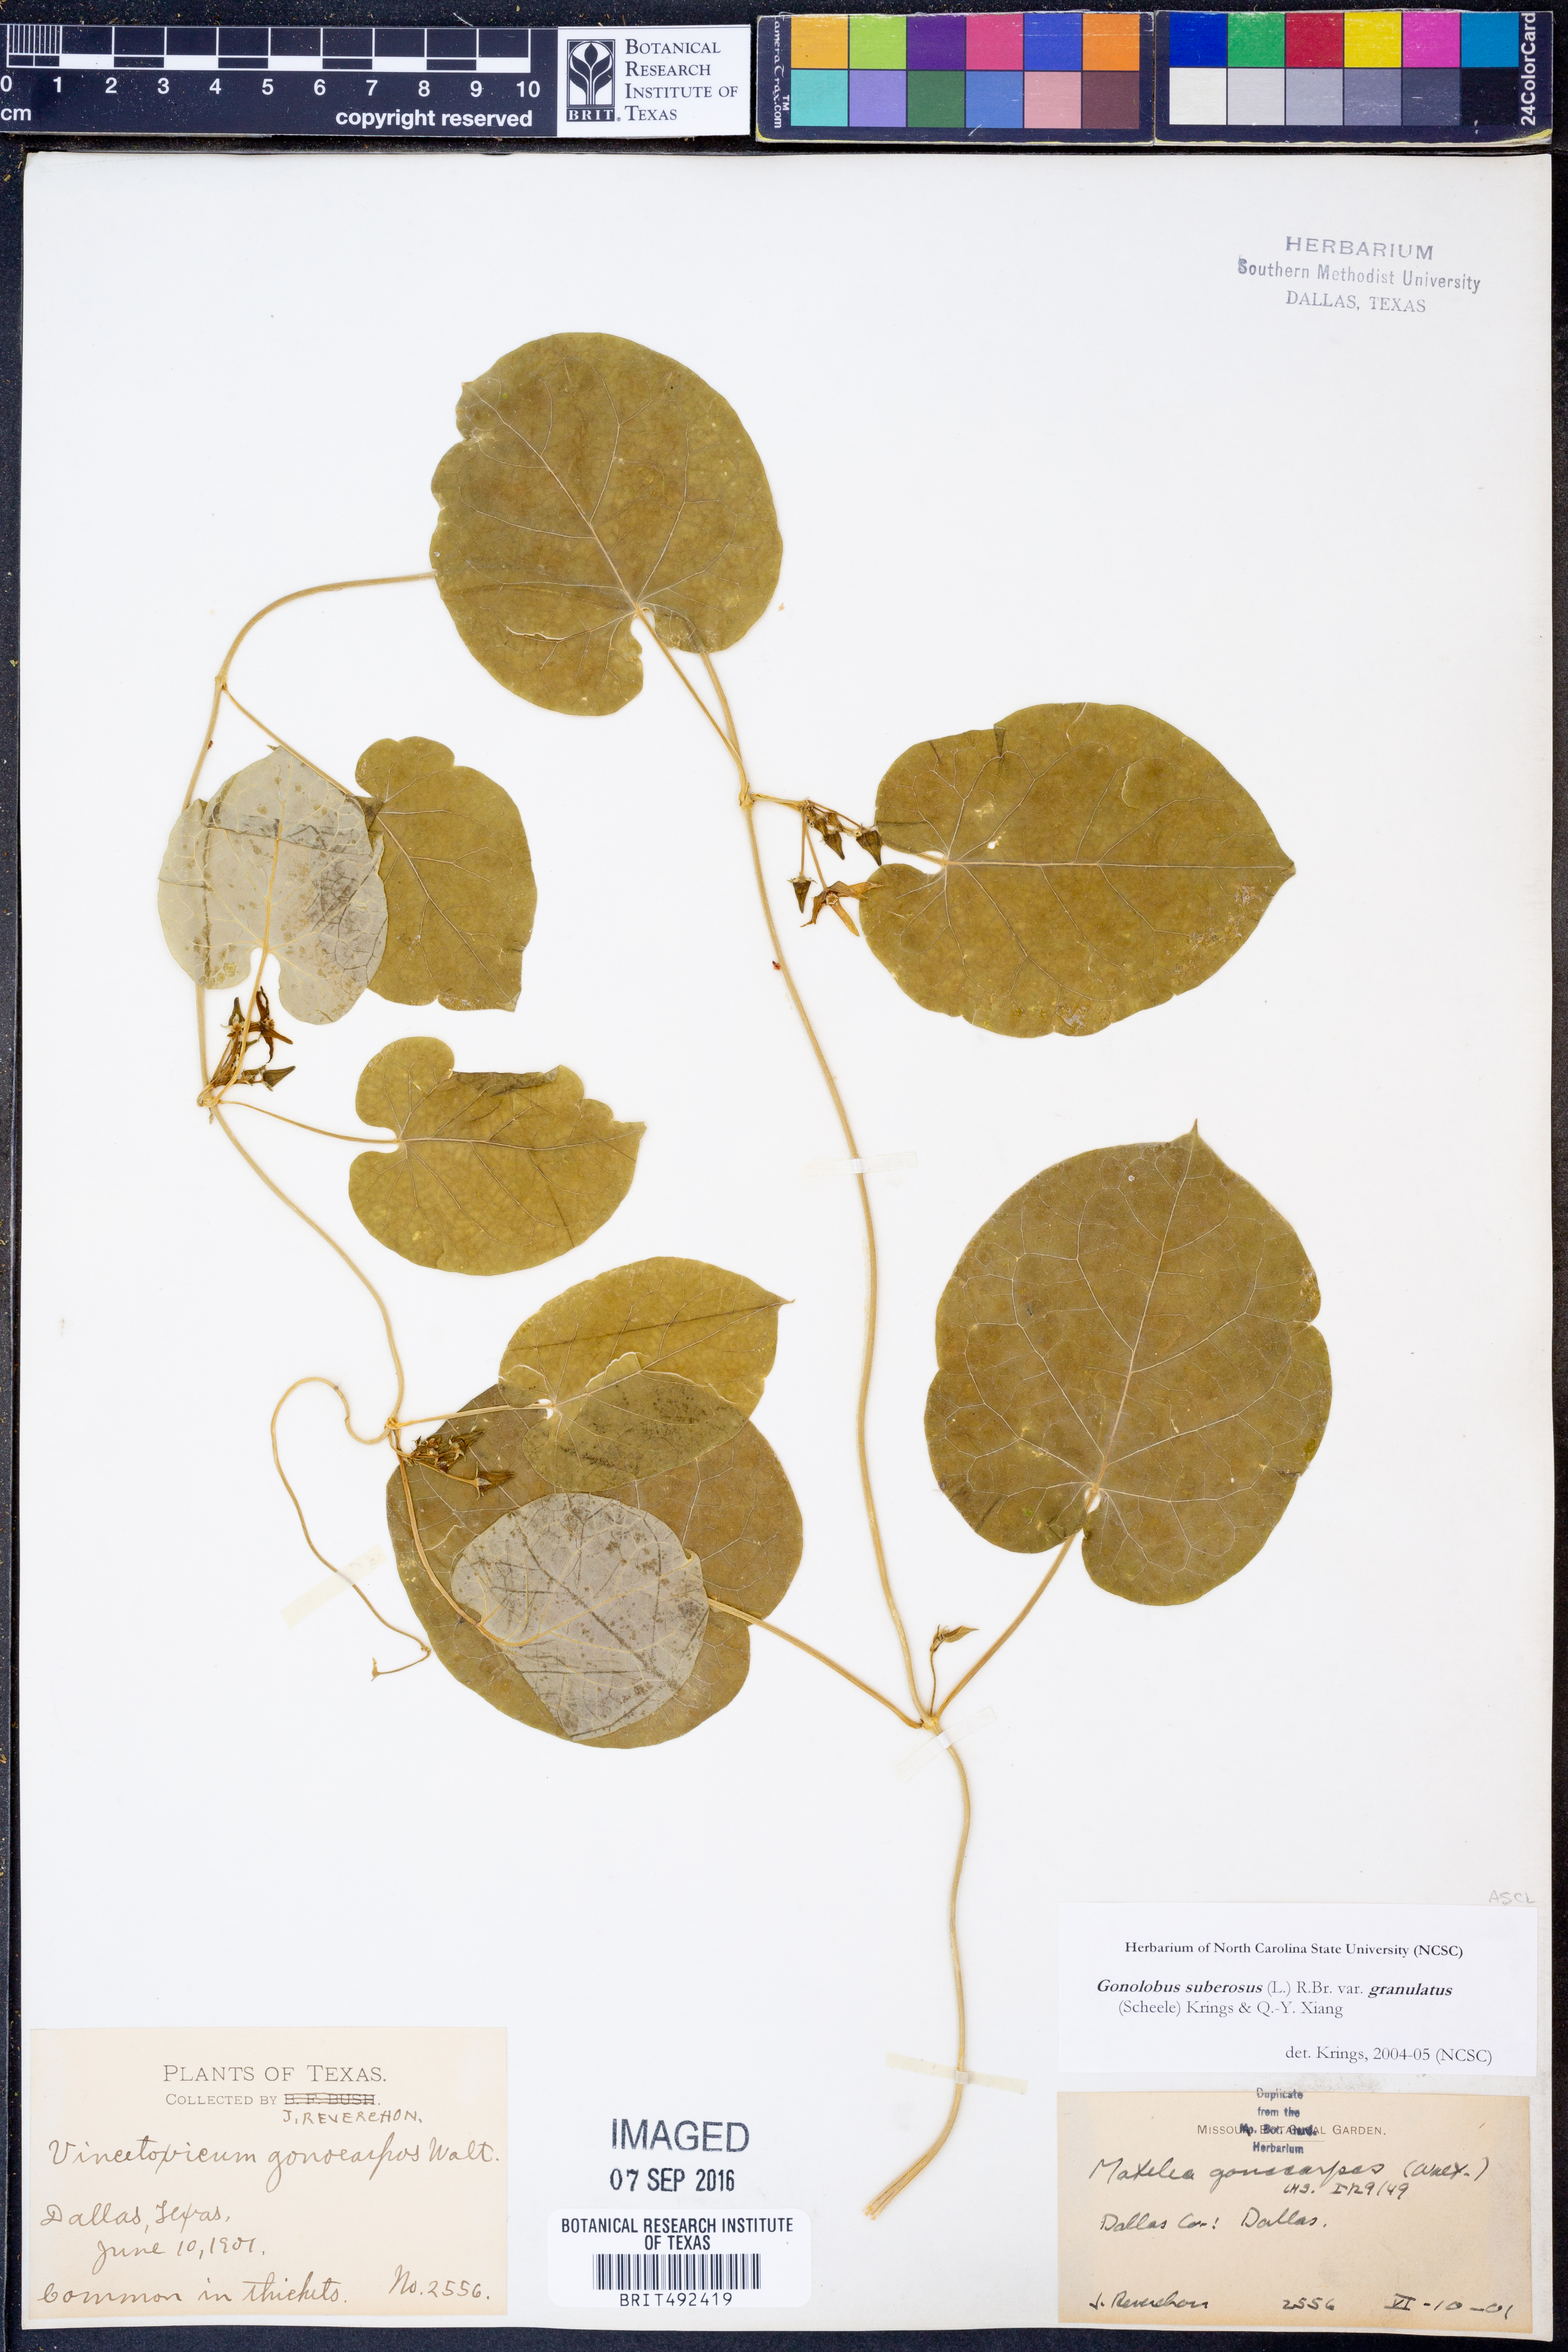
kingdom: Plantae
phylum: Tracheophyta
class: Magnoliopsida
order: Gentianales
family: Apocynaceae
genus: Gonolobus
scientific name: Gonolobus suberosus
